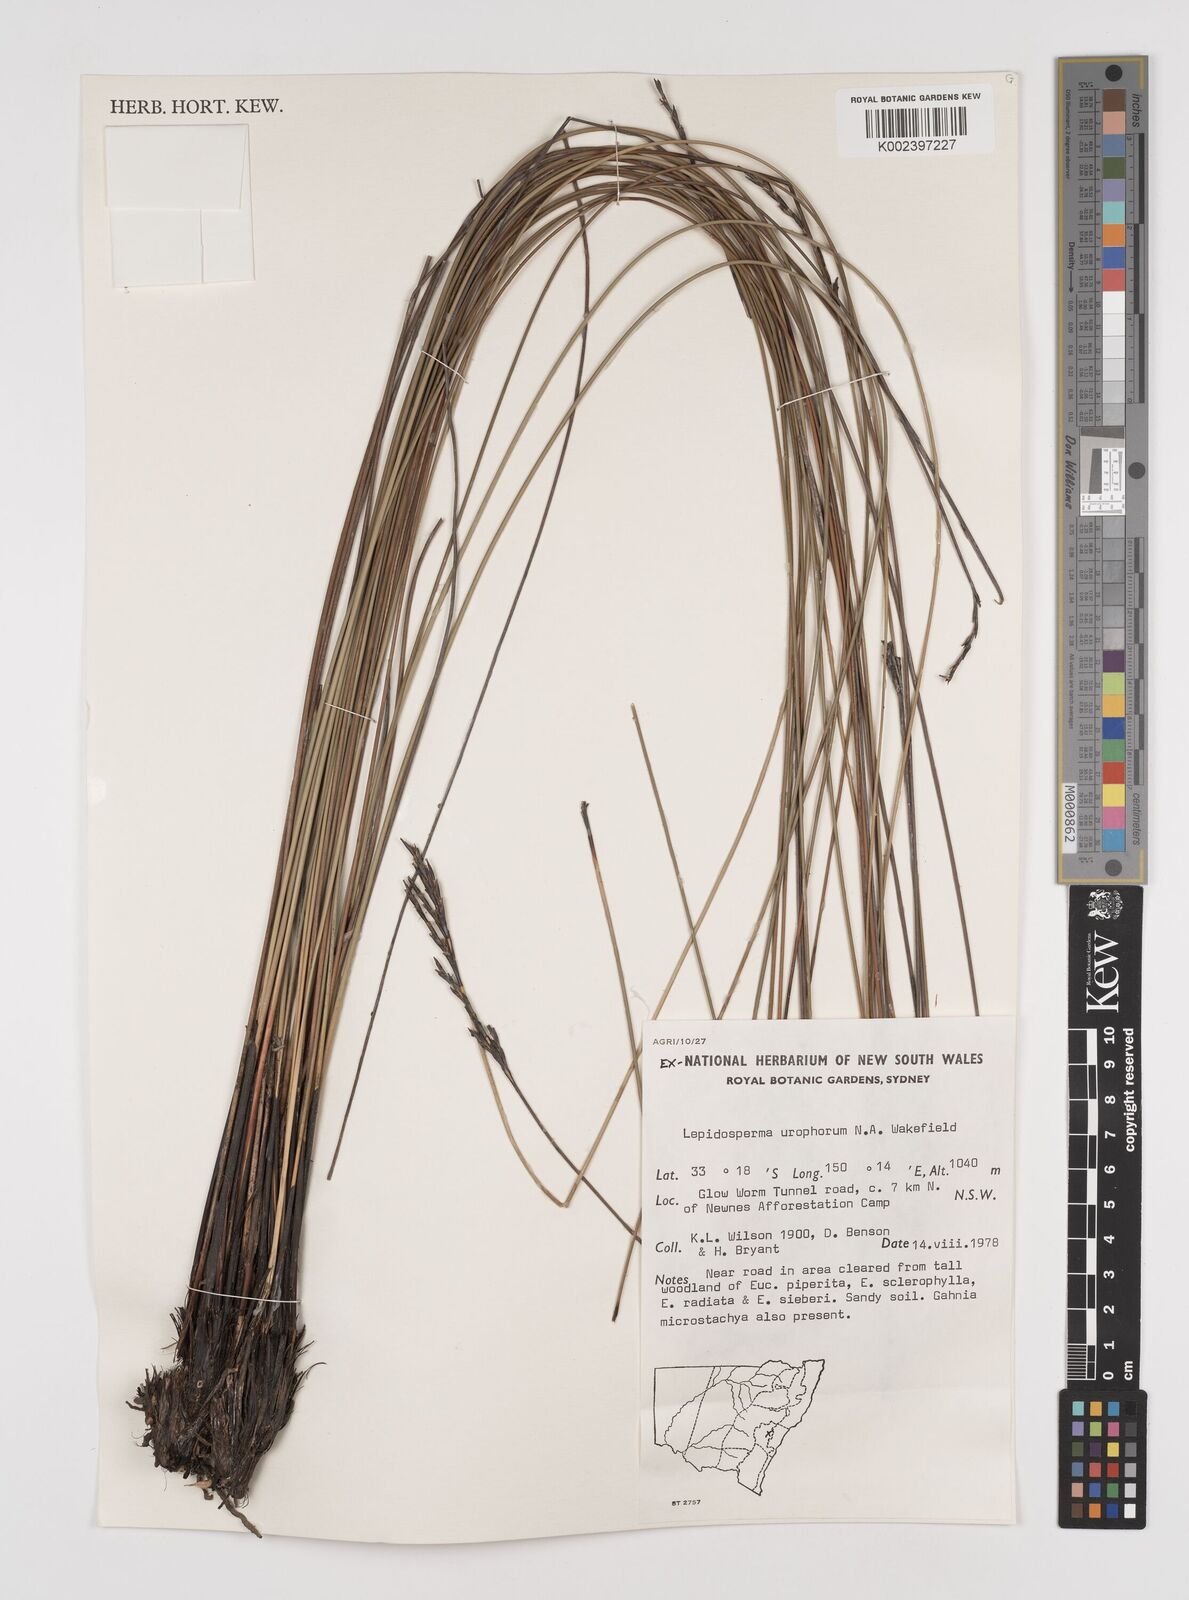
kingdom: Plantae
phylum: Tracheophyta
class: Liliopsida
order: Poales
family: Cyperaceae
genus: Lepidosperma
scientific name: Lepidosperma urophorum
